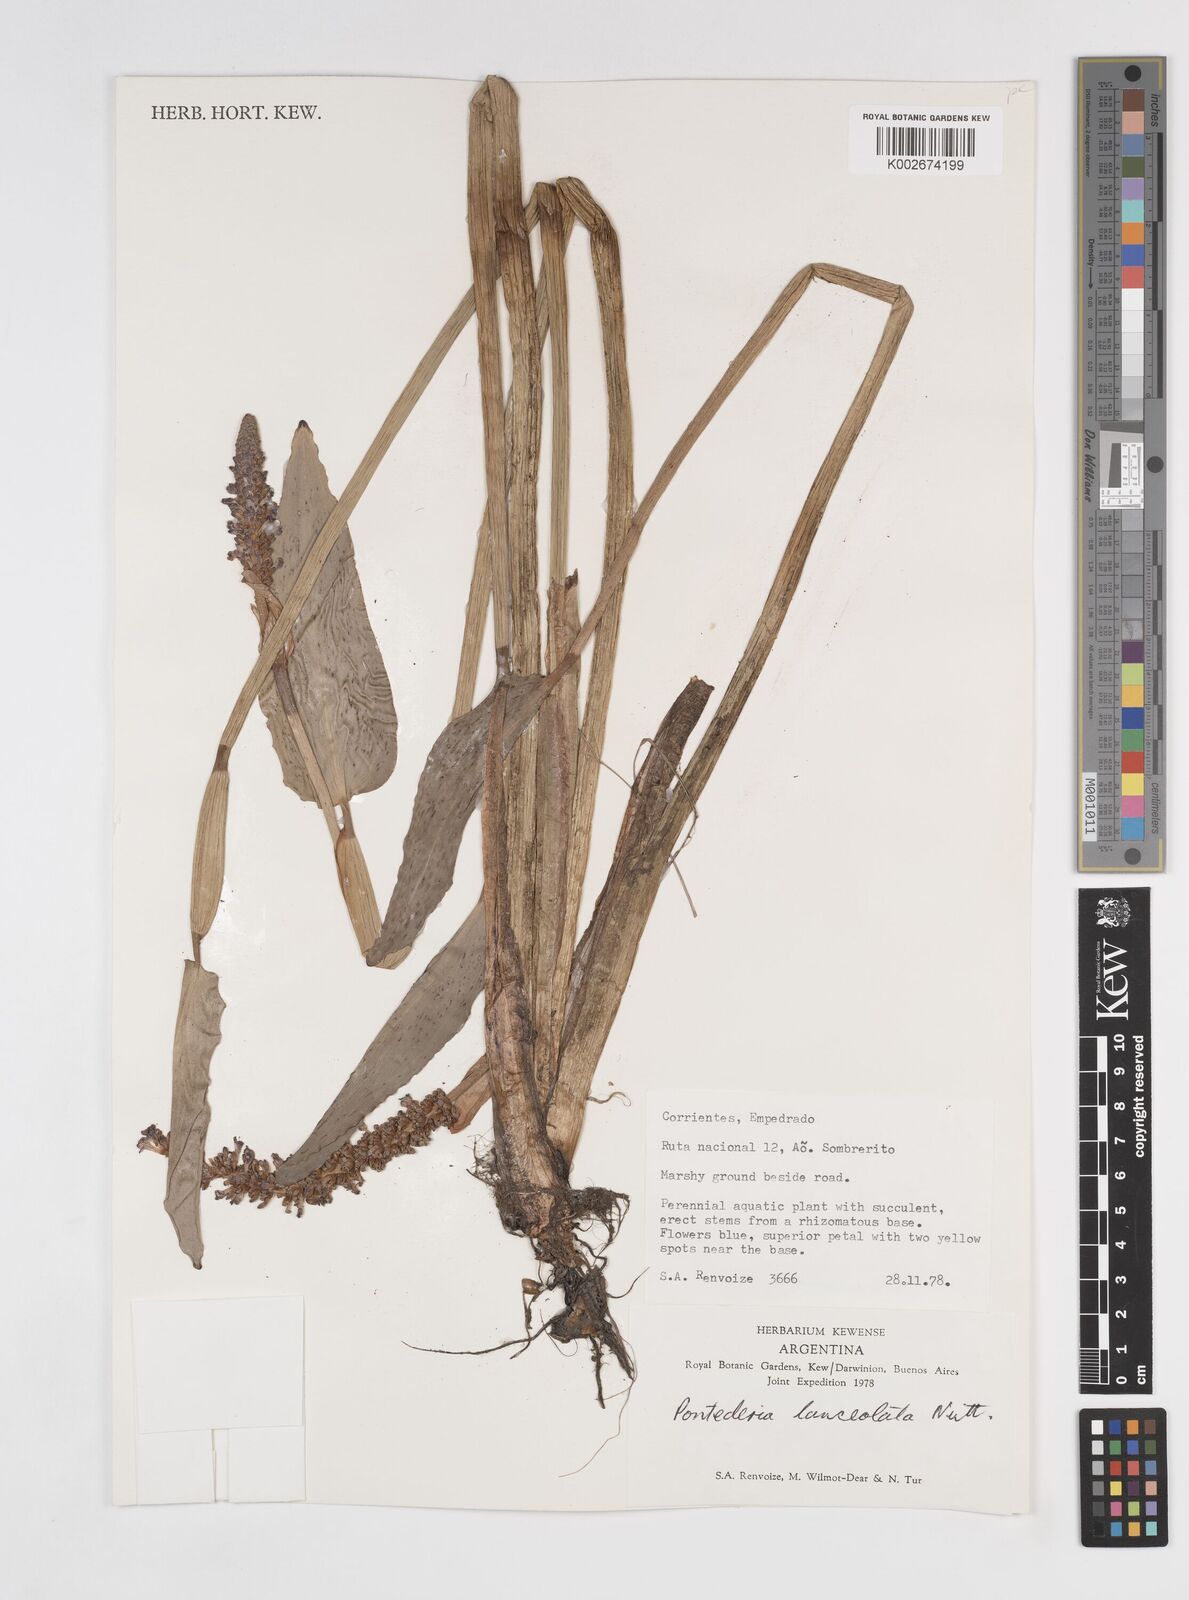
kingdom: Plantae
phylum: Tracheophyta
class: Liliopsida
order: Commelinales
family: Pontederiaceae
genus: Pontederia
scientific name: Pontederia
